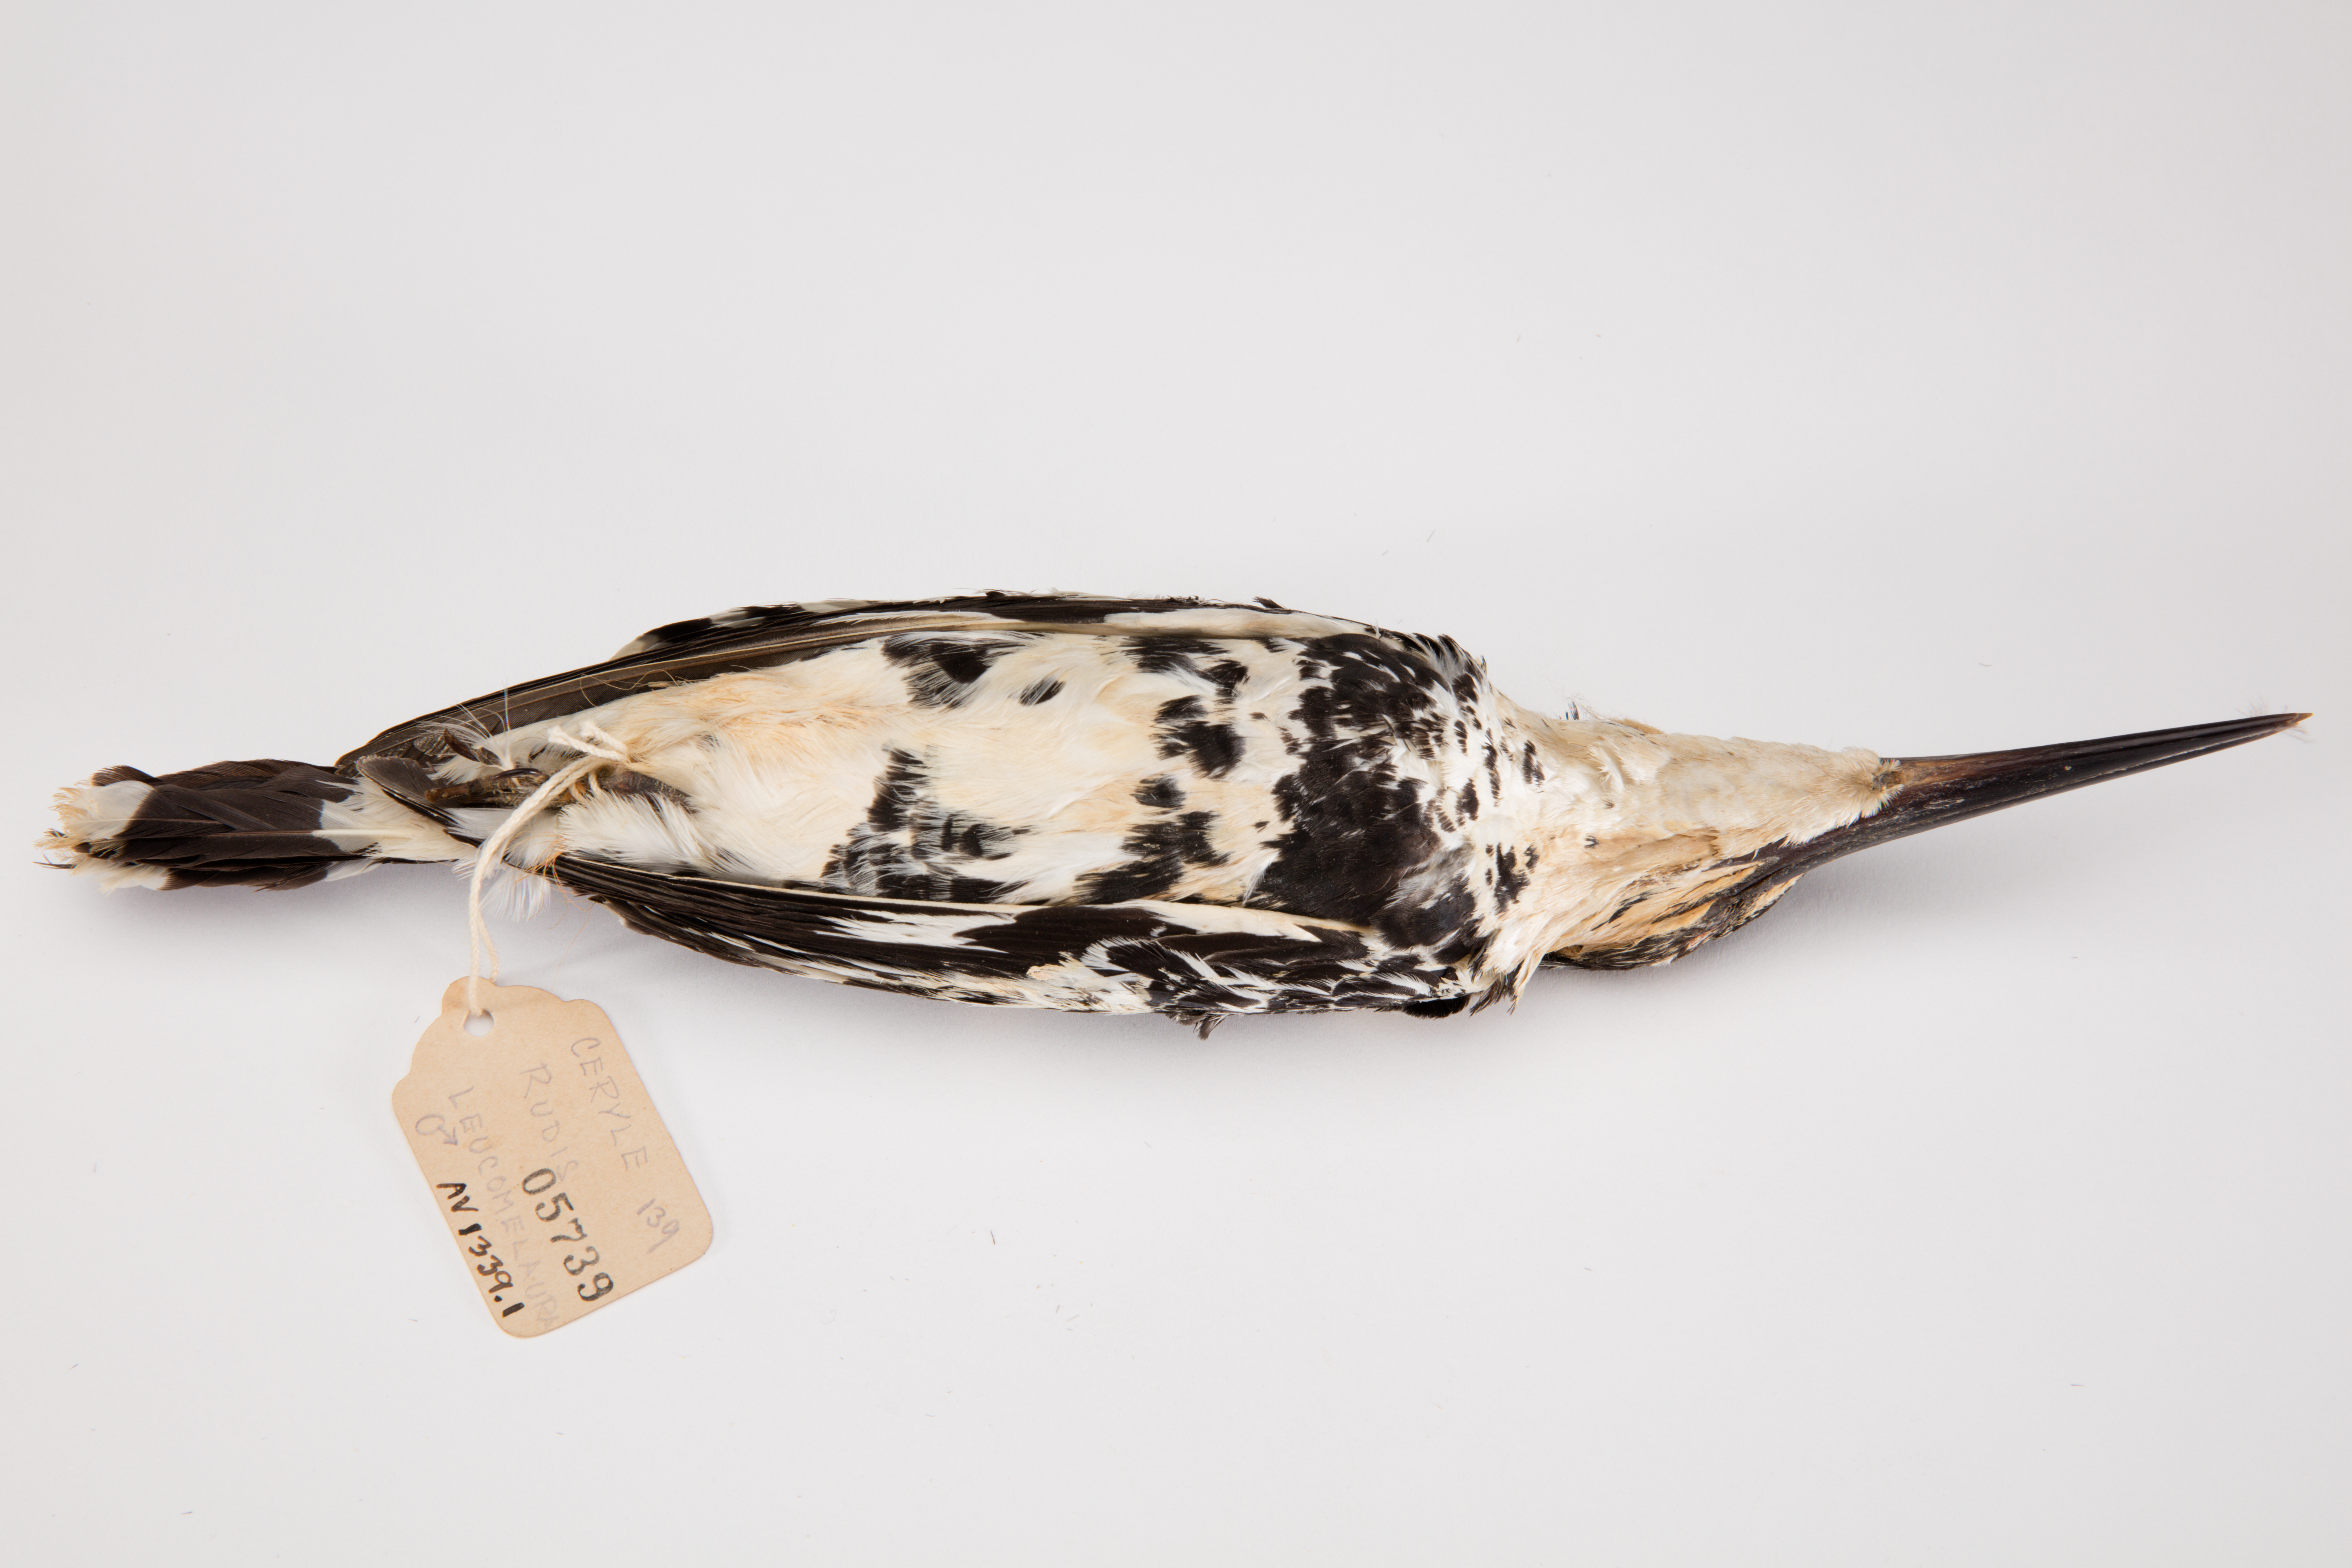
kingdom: Animalia
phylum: Chordata
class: Aves
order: Coraciiformes
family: Alcedinidae
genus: Ceryle
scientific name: Ceryle rudis
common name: Pied kingfisher
